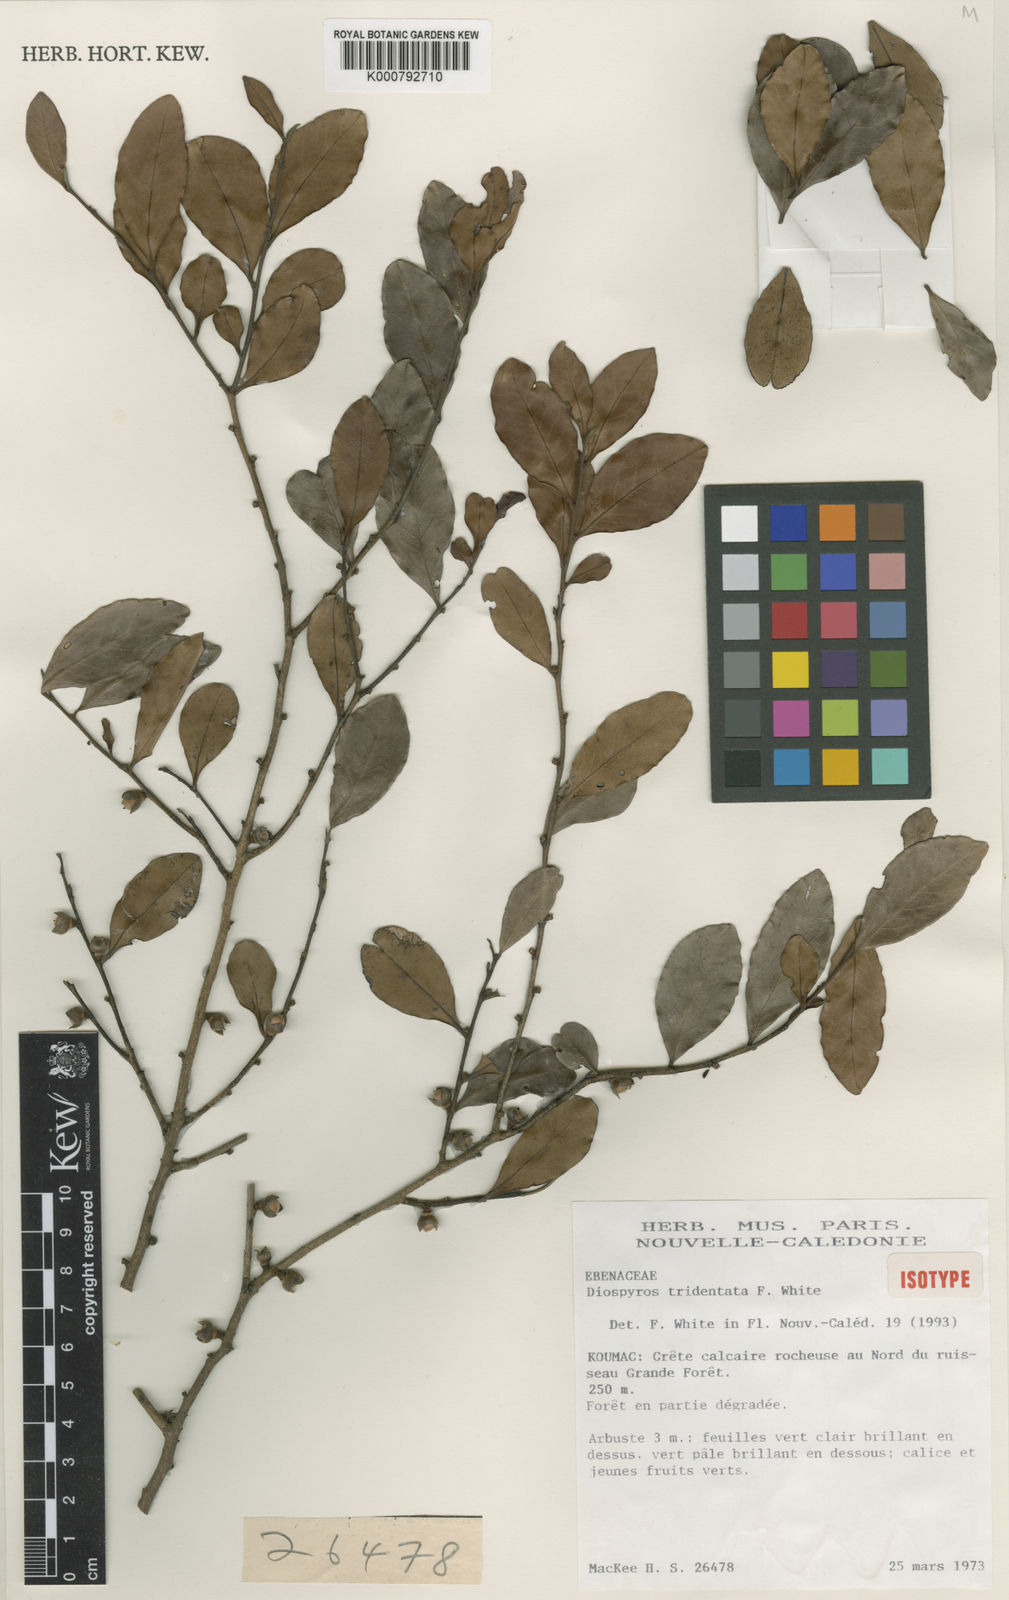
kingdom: Plantae
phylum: Tracheophyta
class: Magnoliopsida
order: Ericales
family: Ebenaceae
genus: Diospyros
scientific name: Diospyros tridentata
